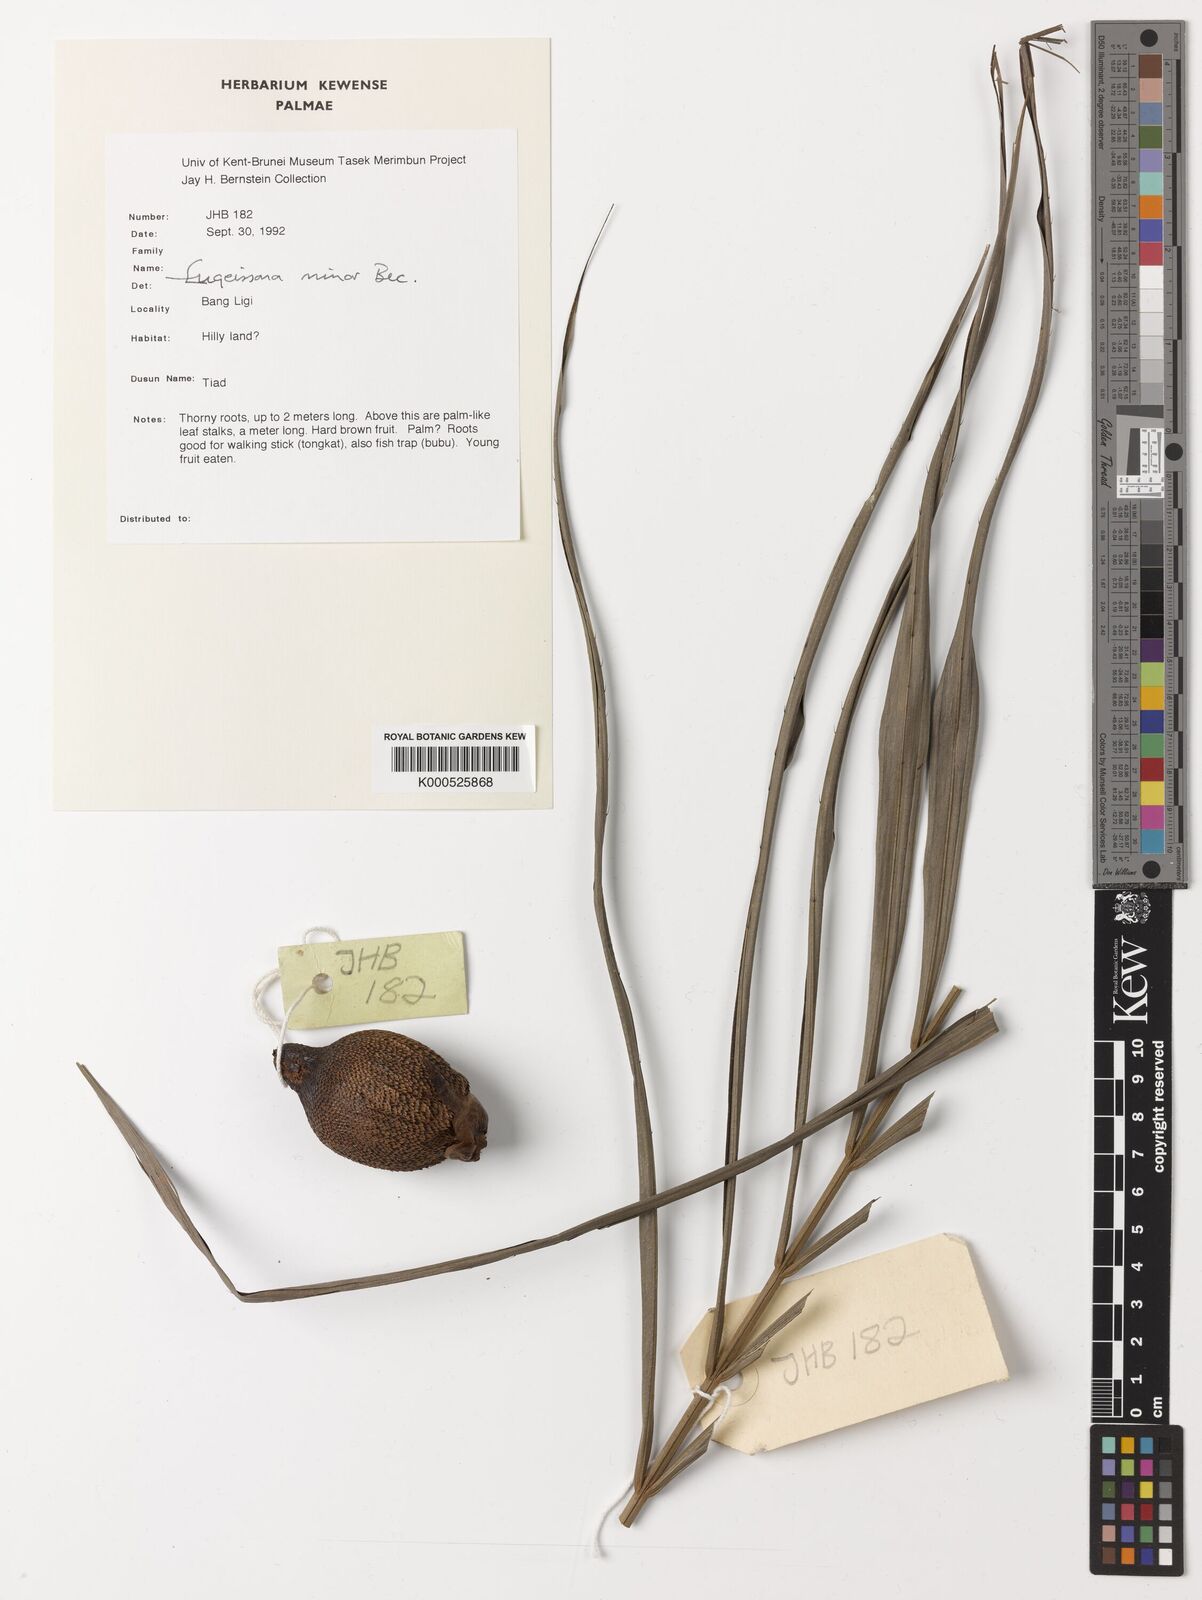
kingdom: Plantae
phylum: Tracheophyta
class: Liliopsida
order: Arecales
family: Arecaceae
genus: Eugeissona
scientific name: Eugeissona minor
